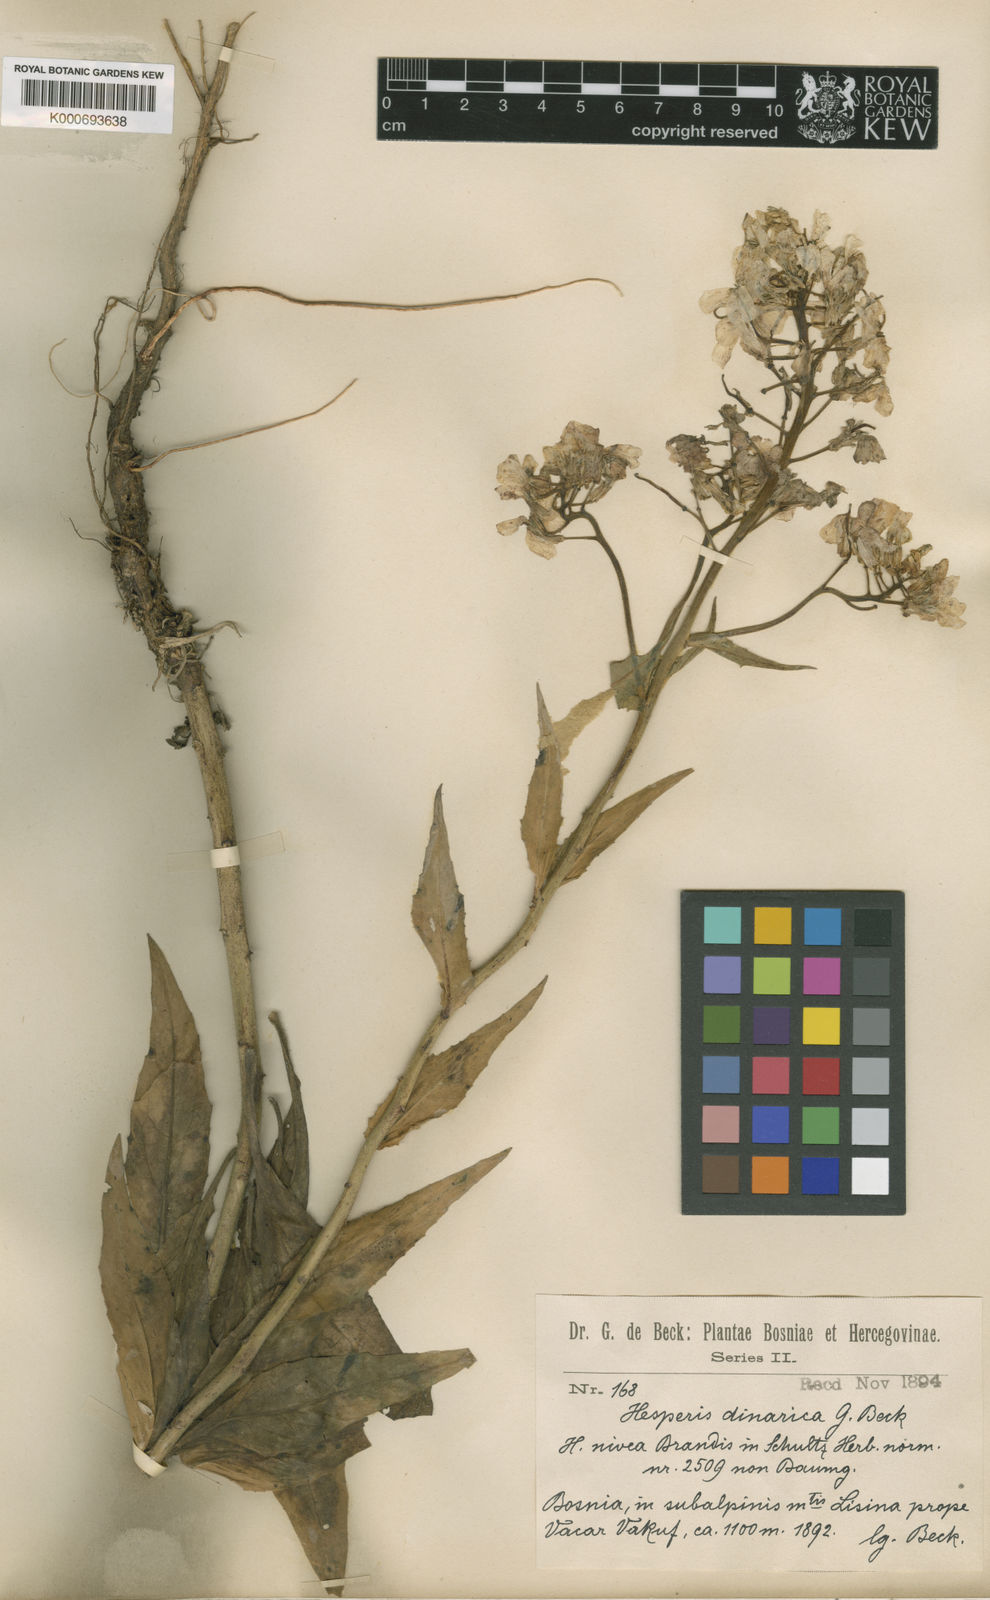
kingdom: Plantae
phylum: Tracheophyta
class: Magnoliopsida
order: Brassicales
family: Brassicaceae
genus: Hesperis
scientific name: Hesperis dinarica
